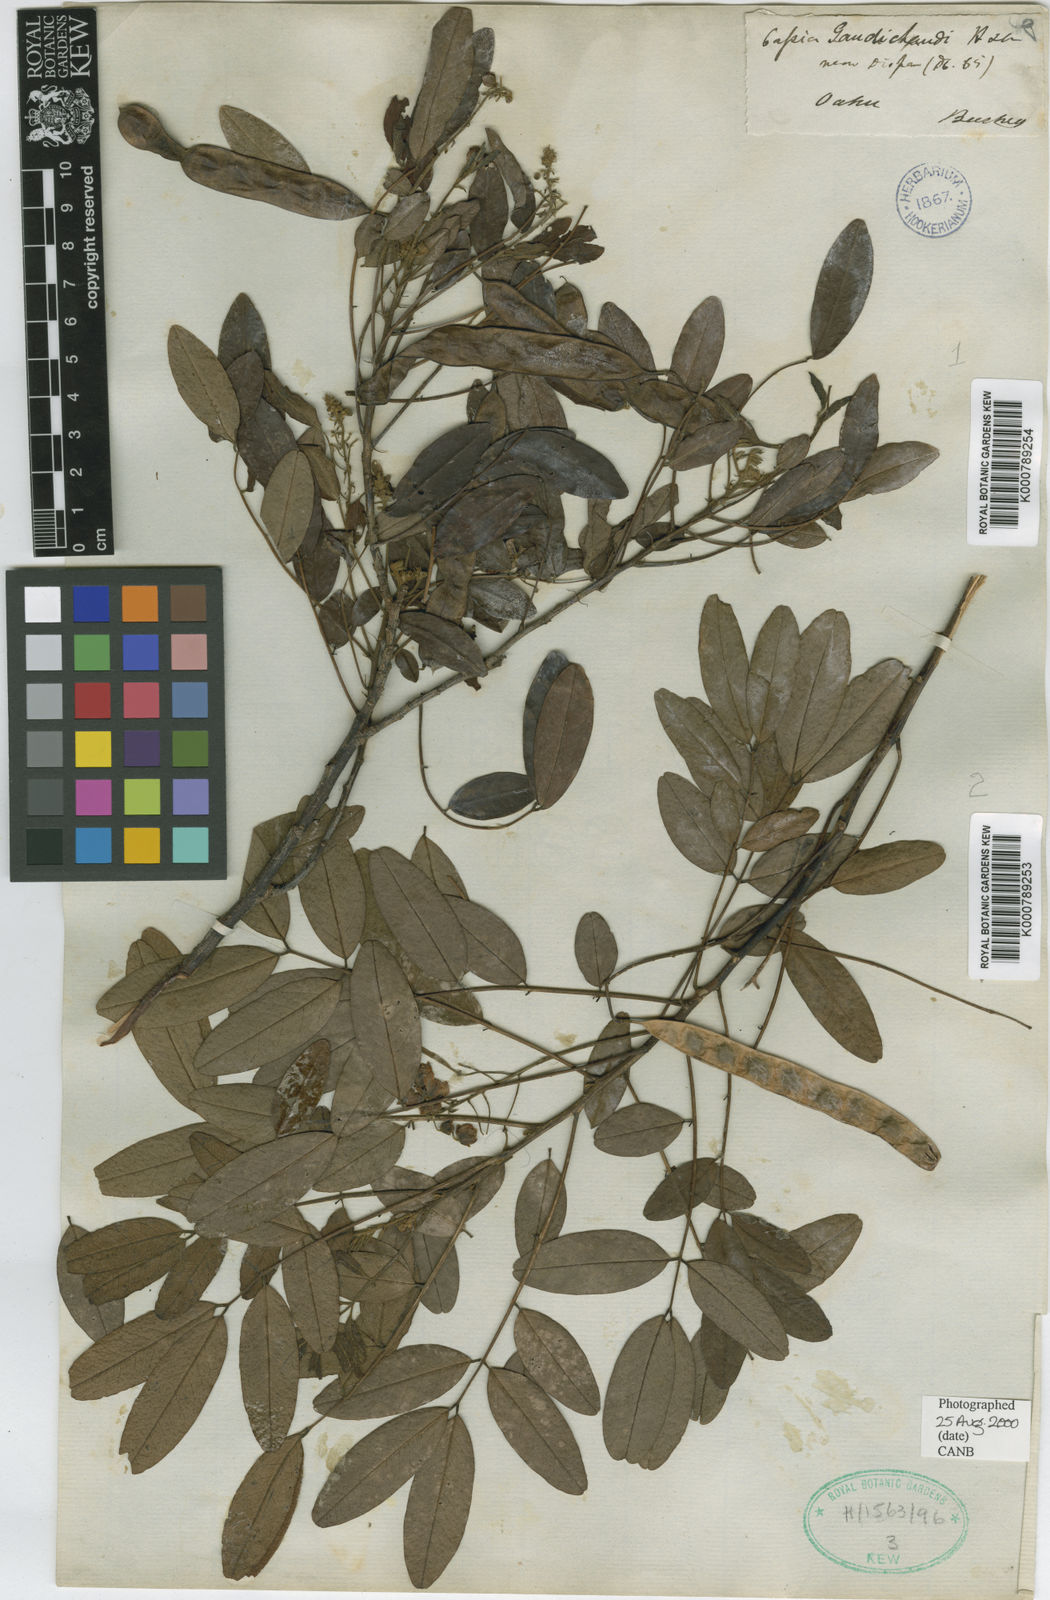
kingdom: Plantae
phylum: Tracheophyta
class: Magnoliopsida
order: Fabales
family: Fabaceae
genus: Senna
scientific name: Senna gaudichaudii
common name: Climbing cassia
